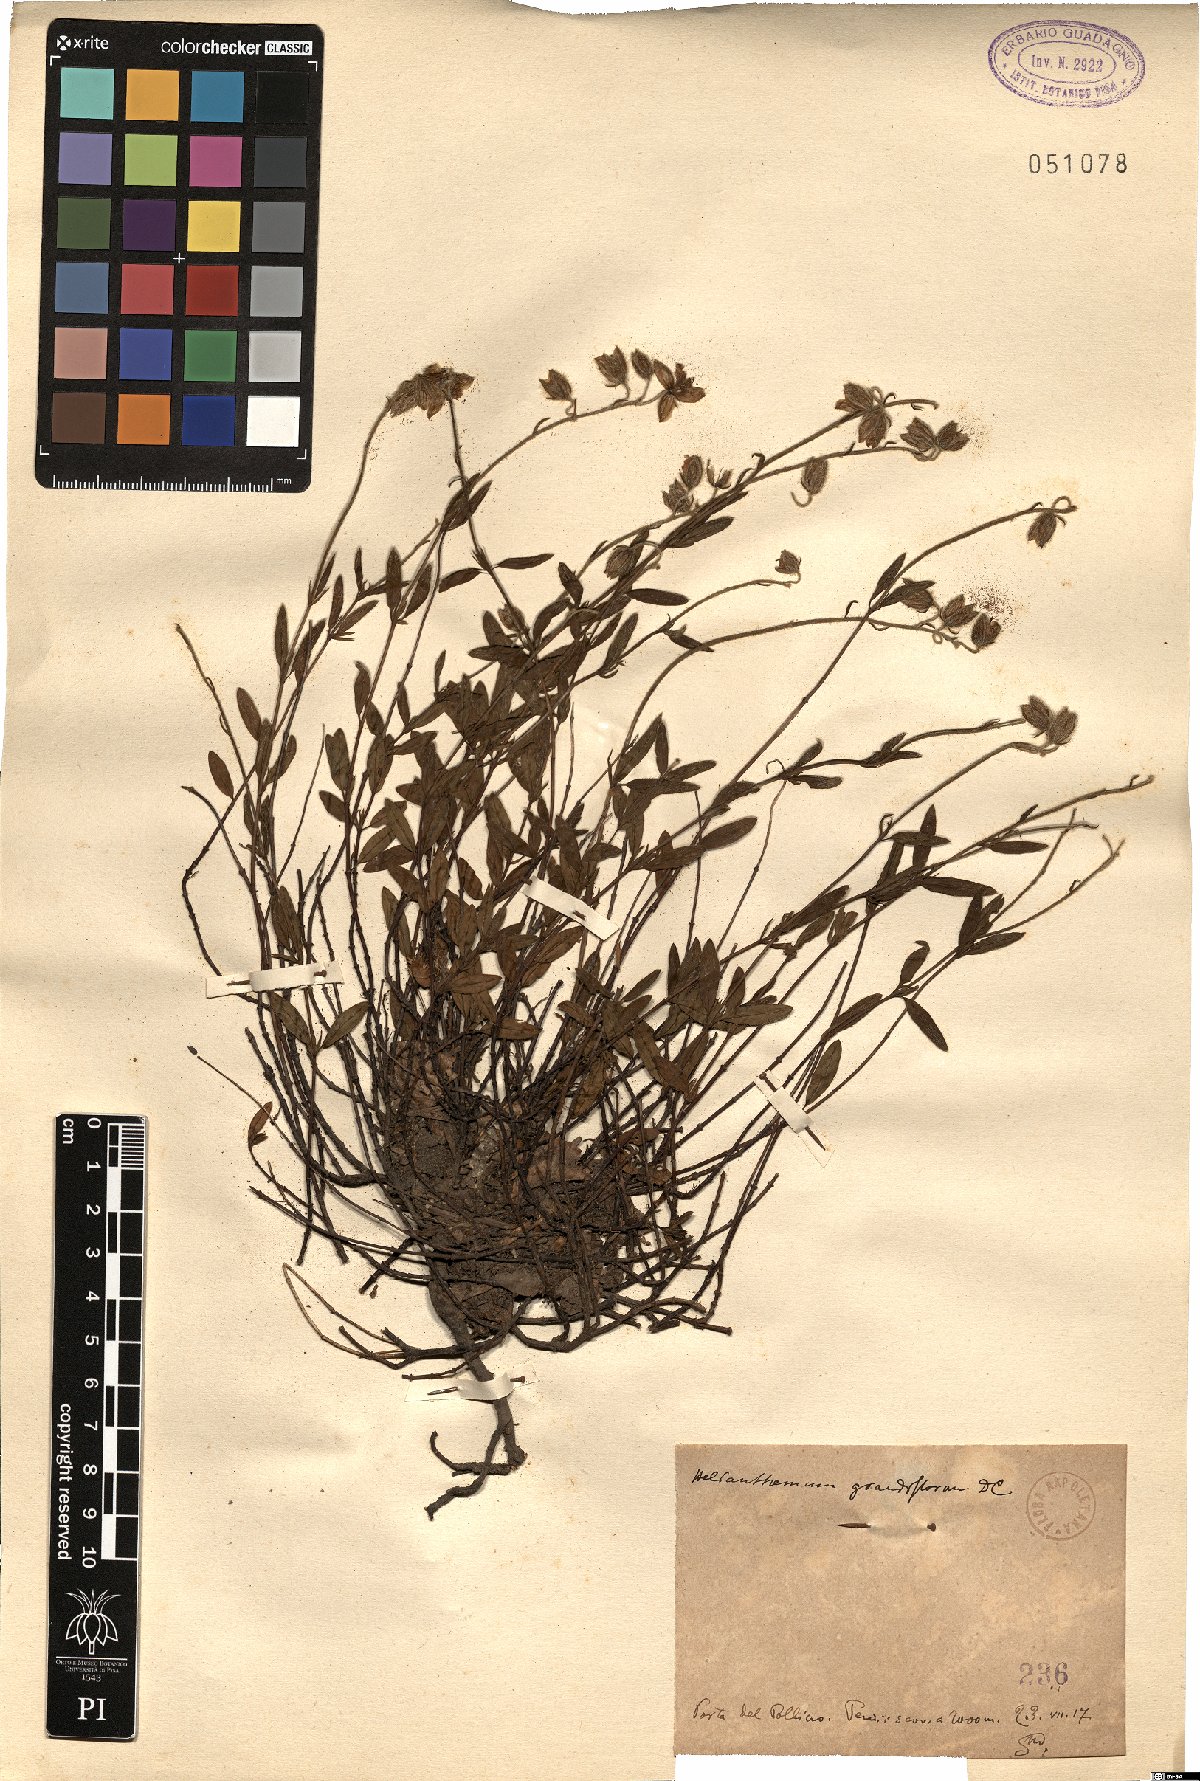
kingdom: Plantae
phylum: Tracheophyta
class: Magnoliopsida
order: Malvales
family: Cistaceae
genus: Helianthemum
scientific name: Helianthemum nummularium
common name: Common rock-rose
